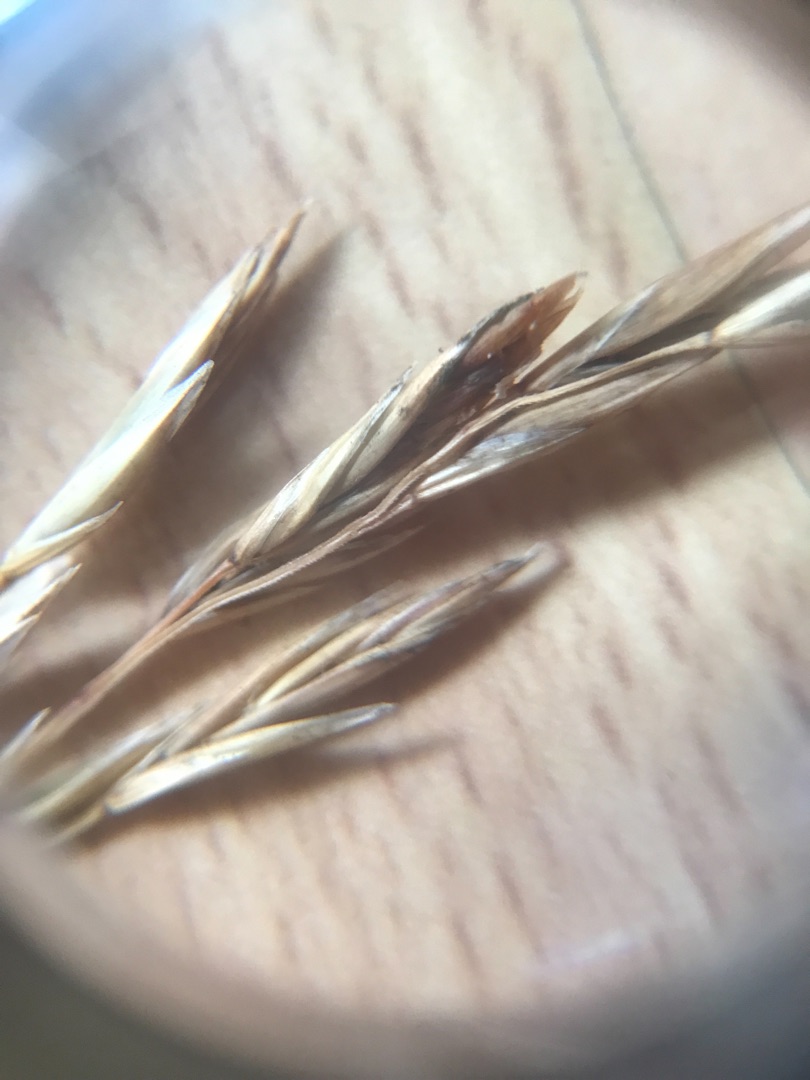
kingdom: Plantae
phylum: Tracheophyta
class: Liliopsida
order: Poales
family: Poaceae
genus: Lolium
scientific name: Lolium arundinaceum
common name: Strand-svingel
